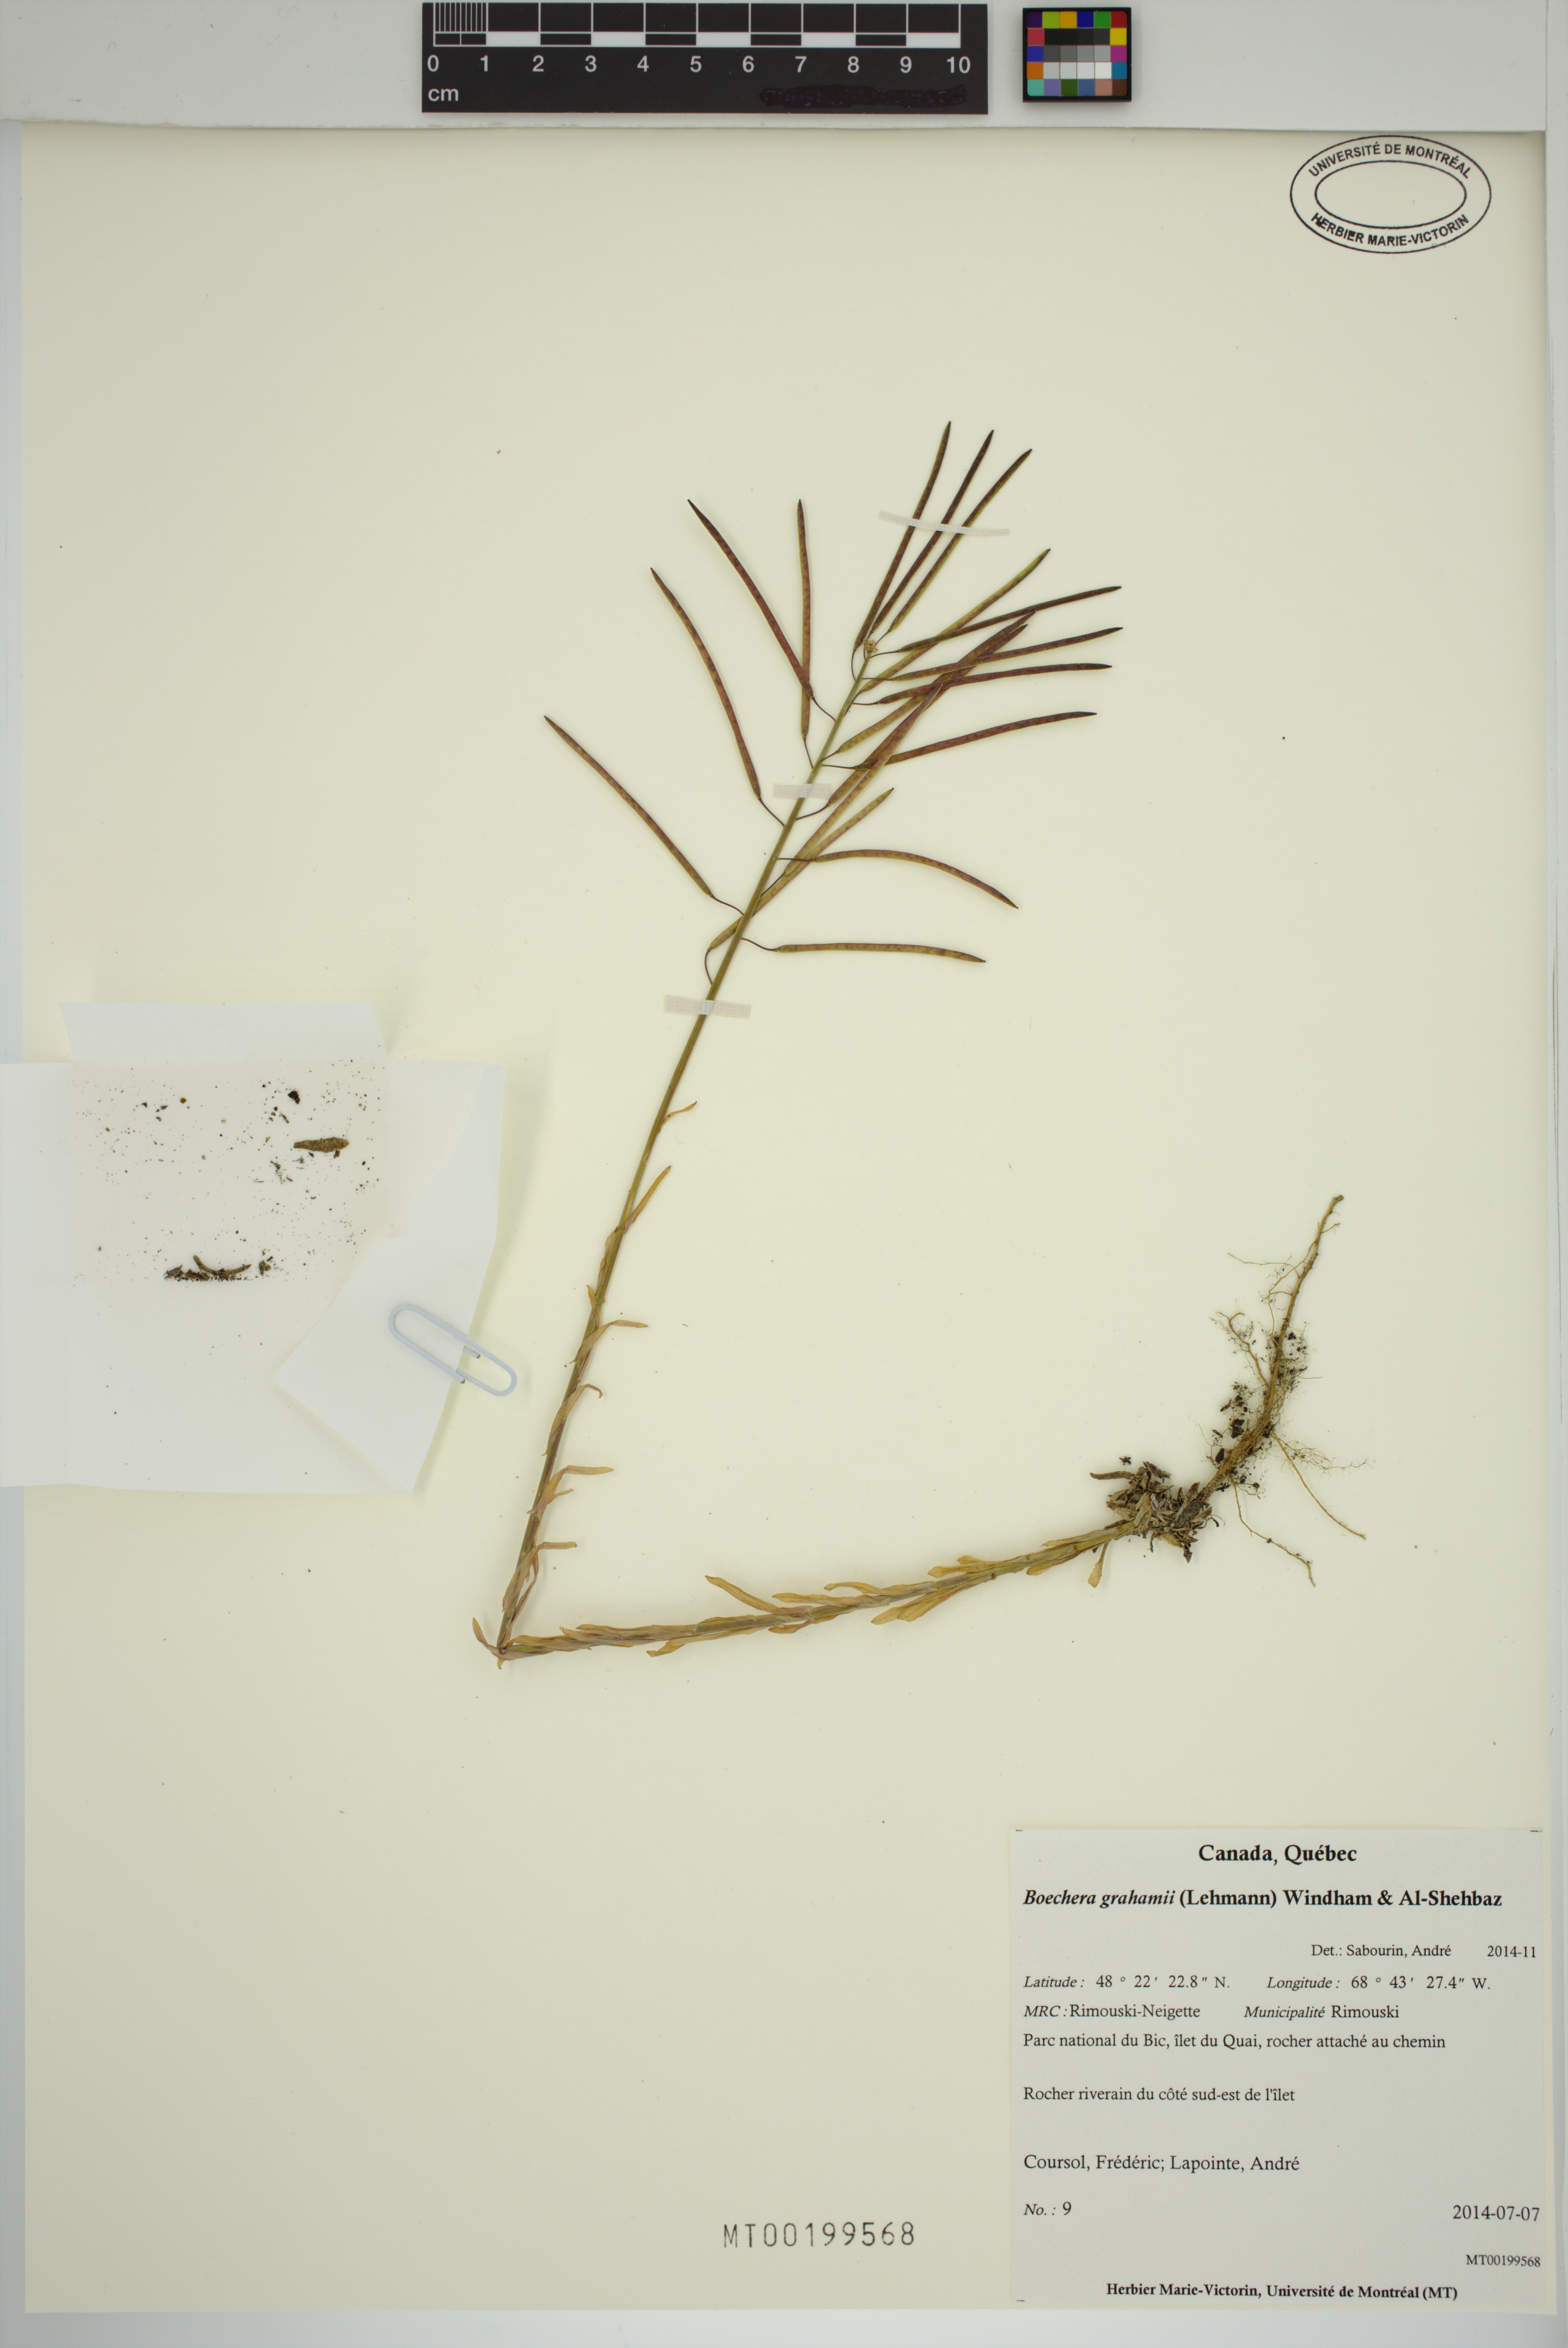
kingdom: Plantae
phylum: Tracheophyta
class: Magnoliopsida
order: Brassicales
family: Brassicaceae
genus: Boechera
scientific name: Boechera grahamii
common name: Graham's rockcress
